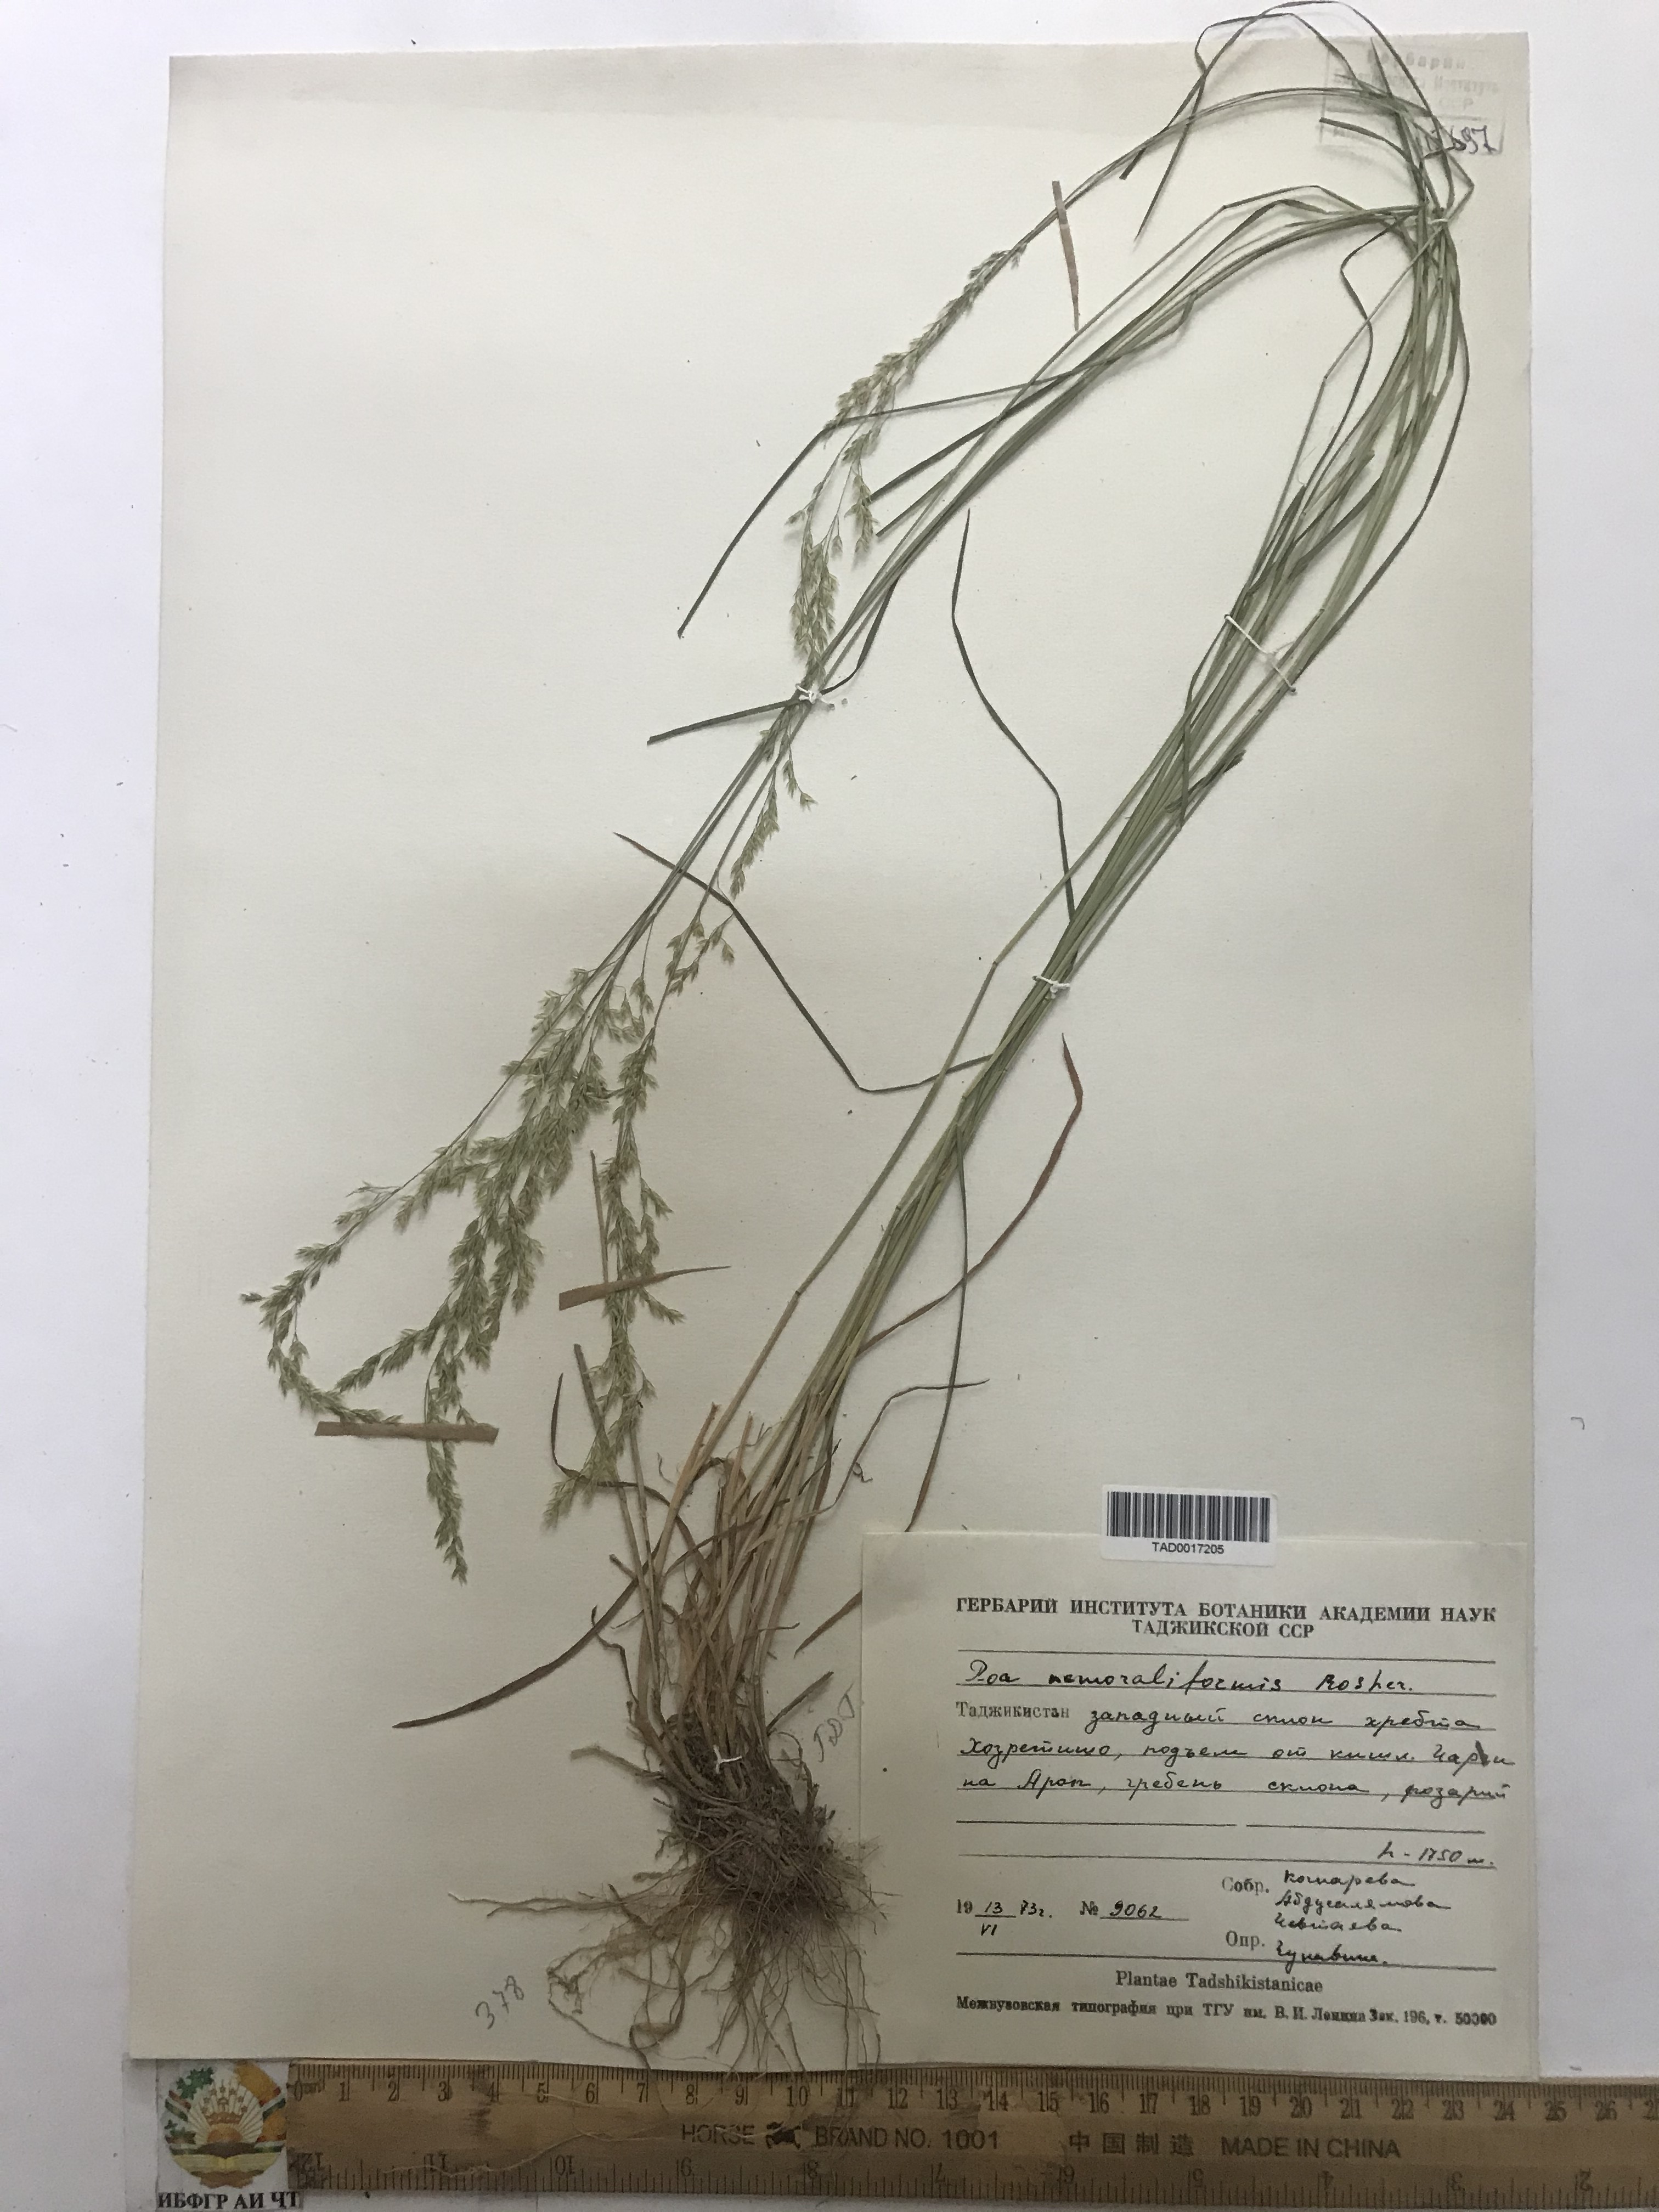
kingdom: Plantae
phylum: Tracheophyta
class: Liliopsida
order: Poales
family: Poaceae
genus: Poa
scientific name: Poa urssulensis
